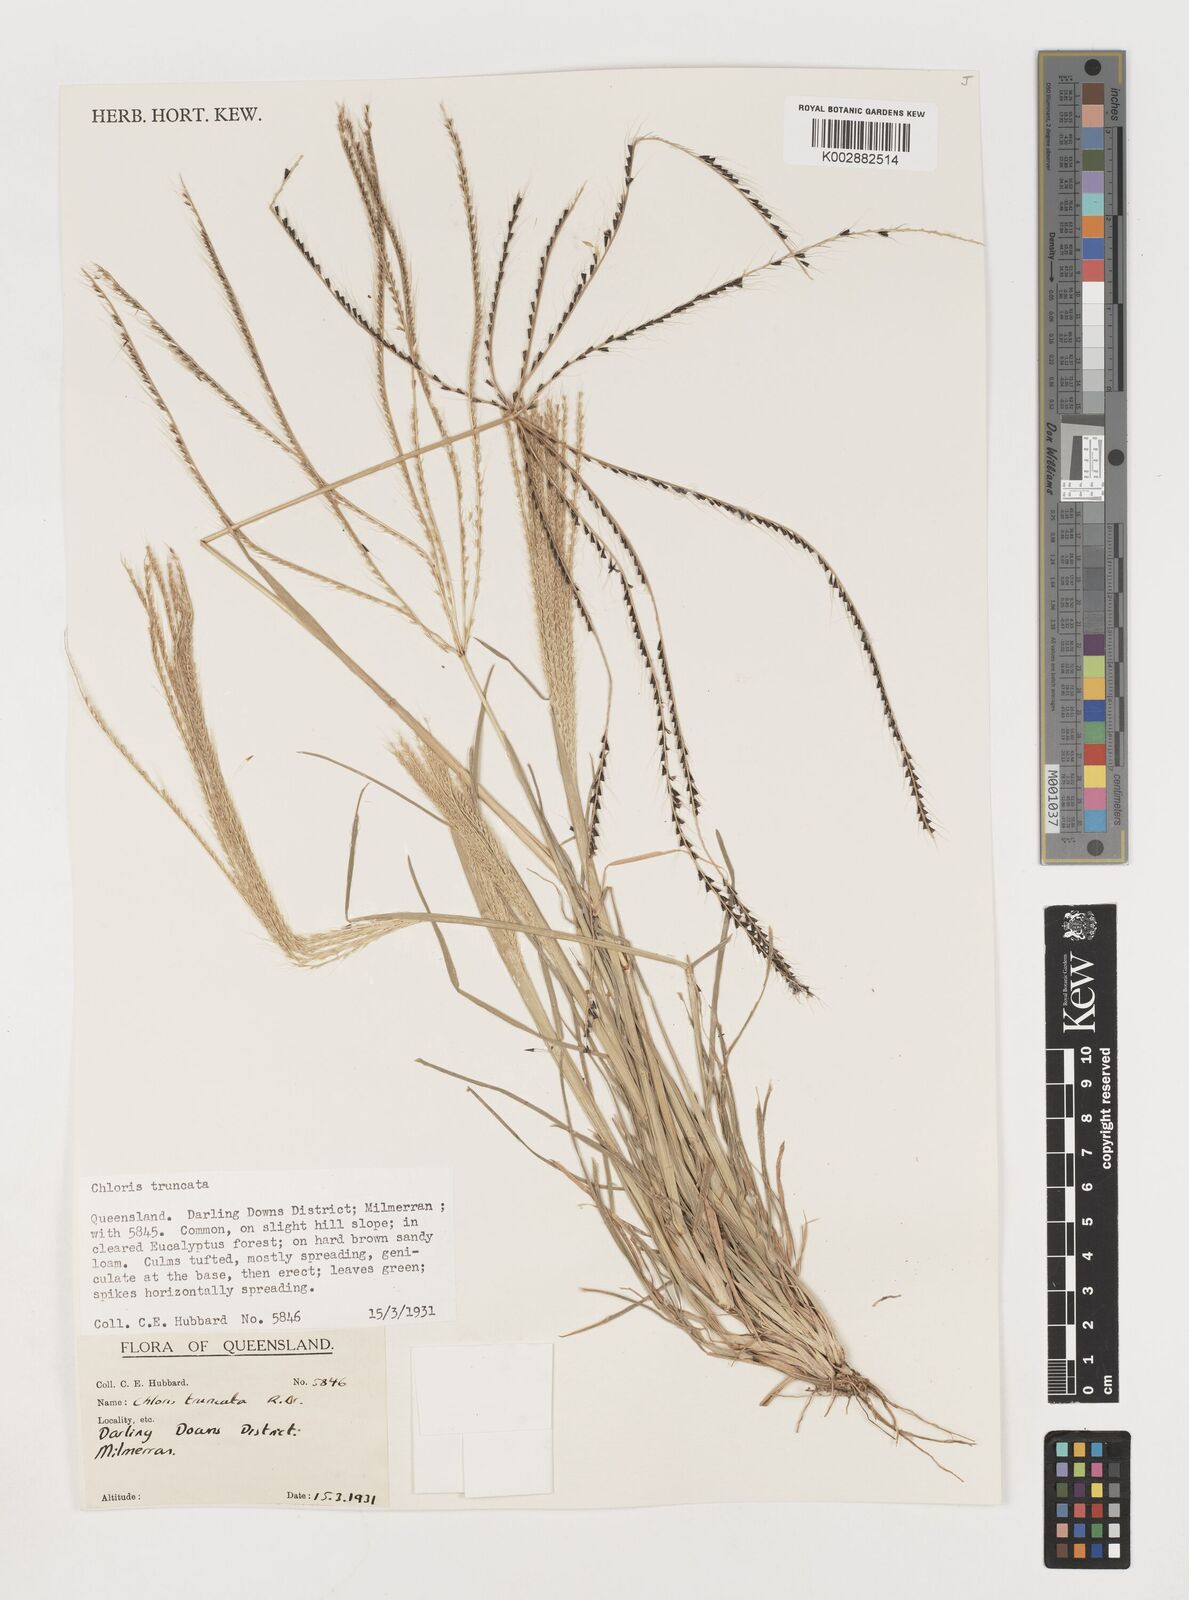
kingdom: Plantae
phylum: Tracheophyta
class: Liliopsida
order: Poales
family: Poaceae
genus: Chloris
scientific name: Chloris truncata
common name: Windmill-grass
